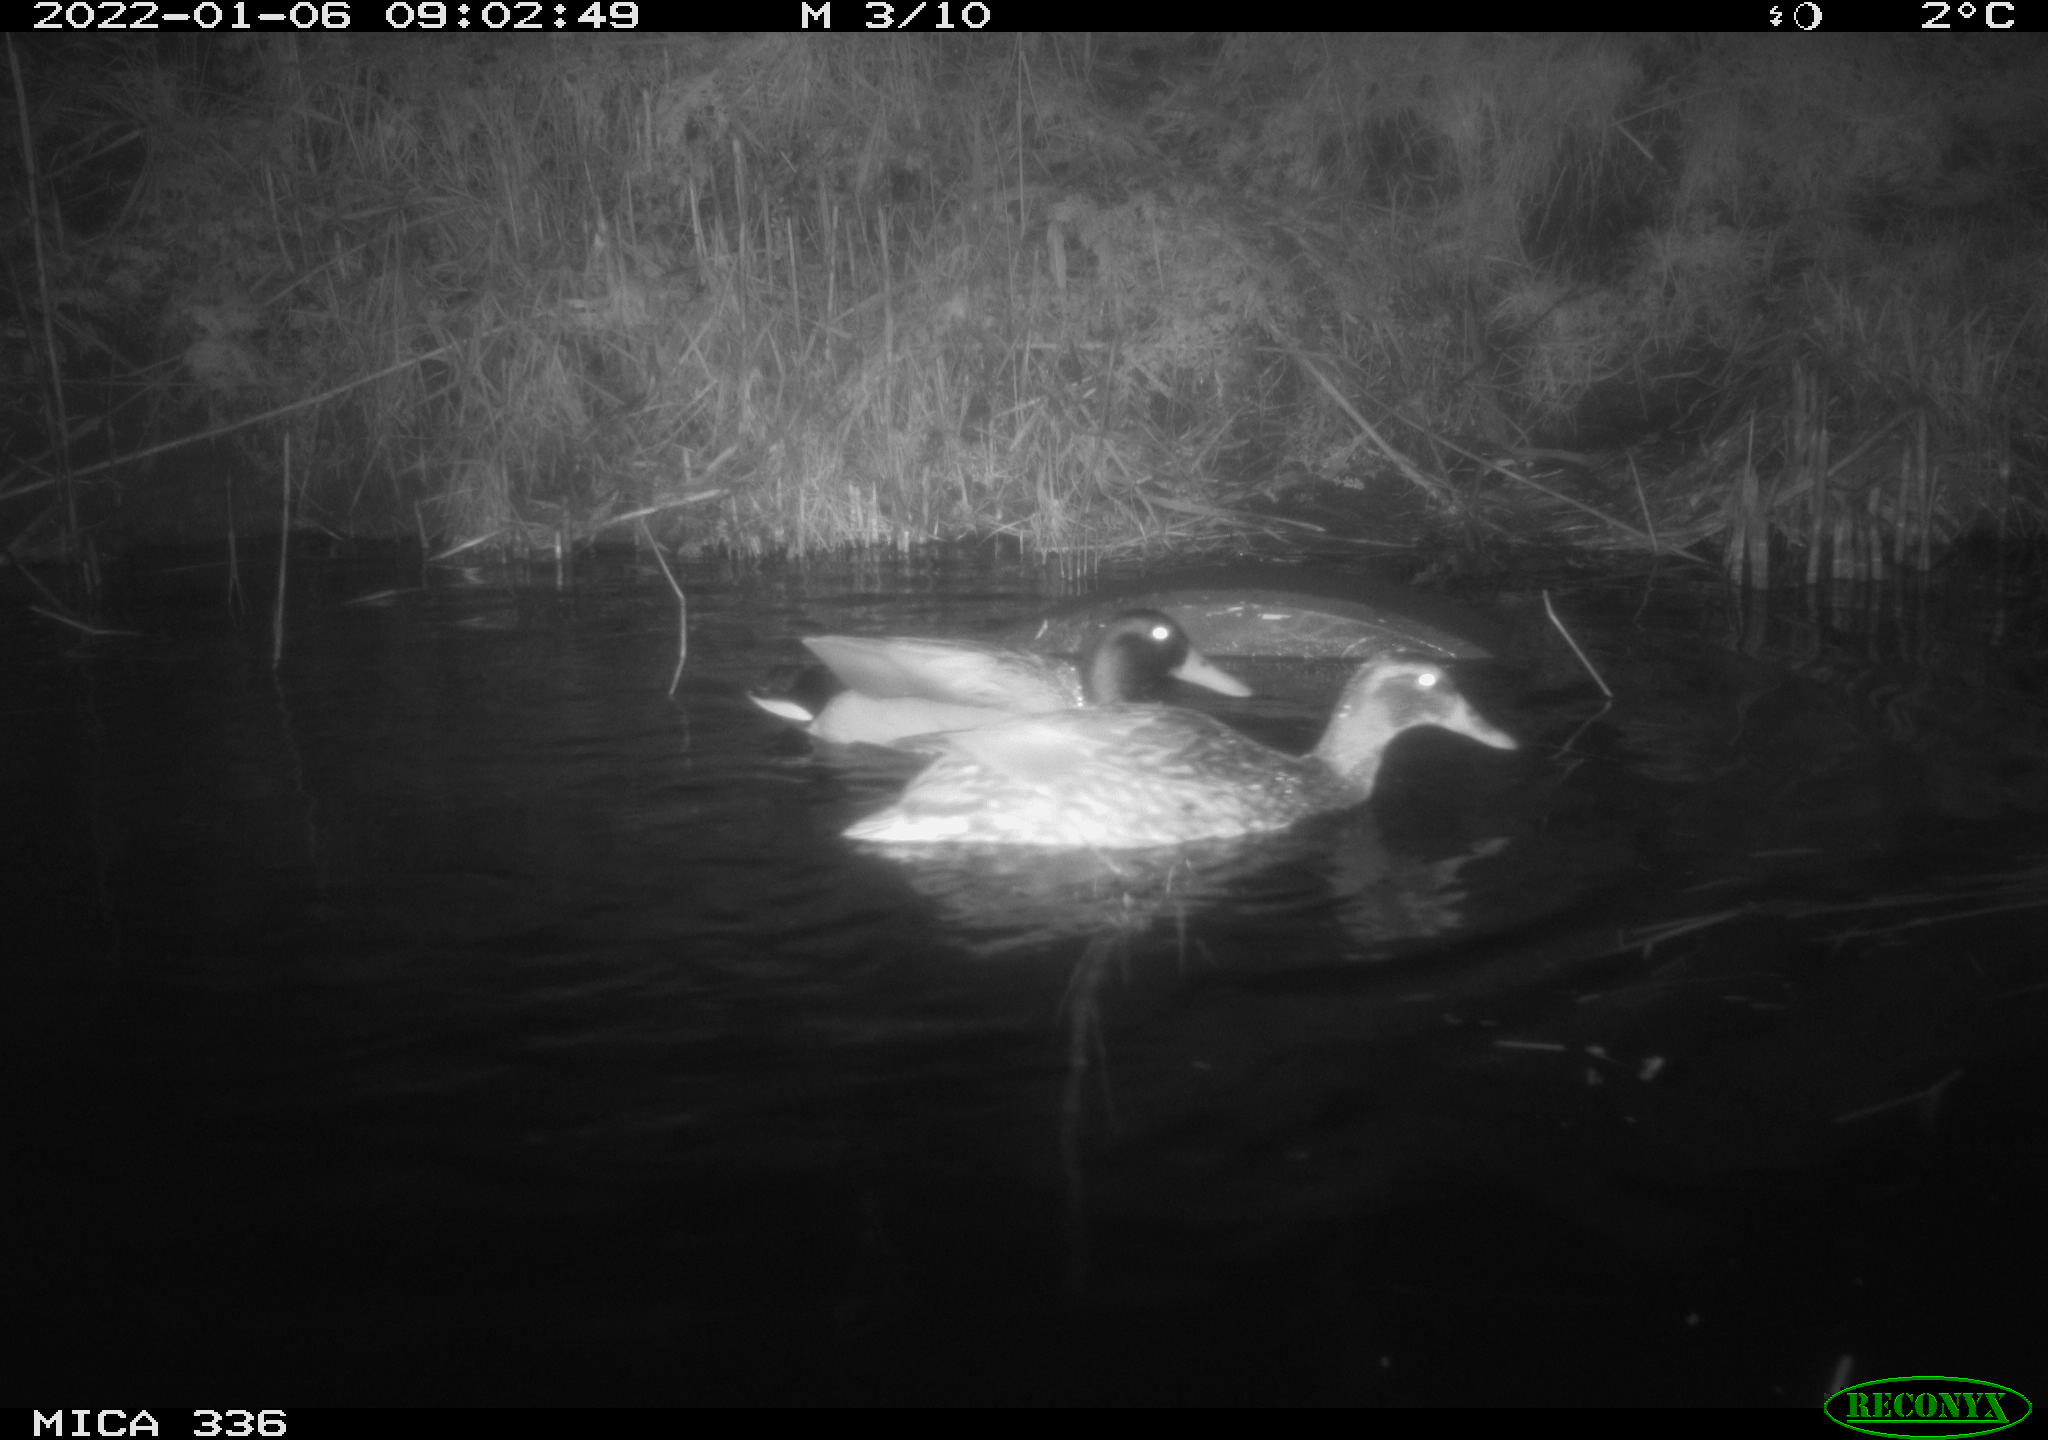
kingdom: Animalia
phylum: Chordata
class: Aves
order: Anseriformes
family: Anatidae
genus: Anas
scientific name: Anas platyrhynchos
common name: Mallard
